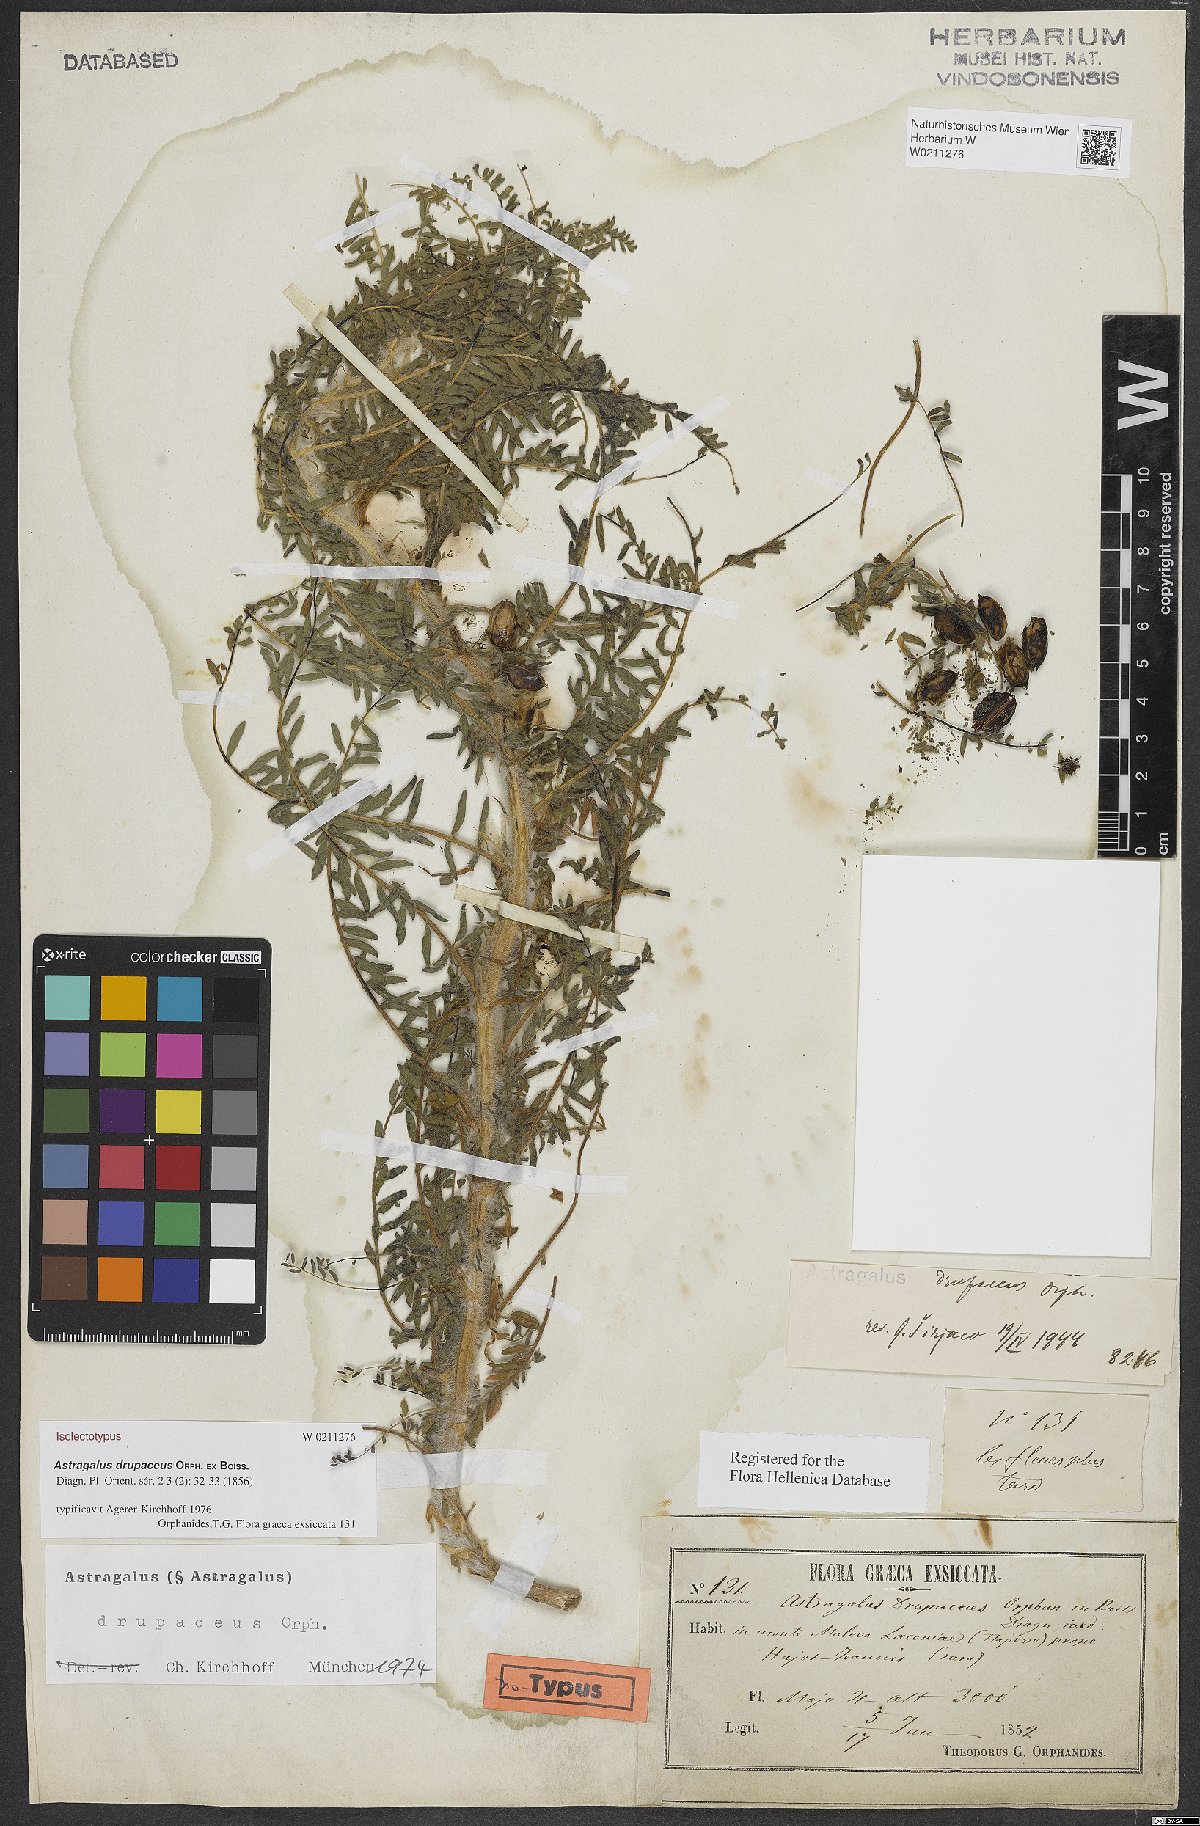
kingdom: Plantae
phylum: Tracheophyta
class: Magnoliopsida
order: Fabales
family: Fabaceae
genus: Astragalus
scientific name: Astragalus drupaceus
